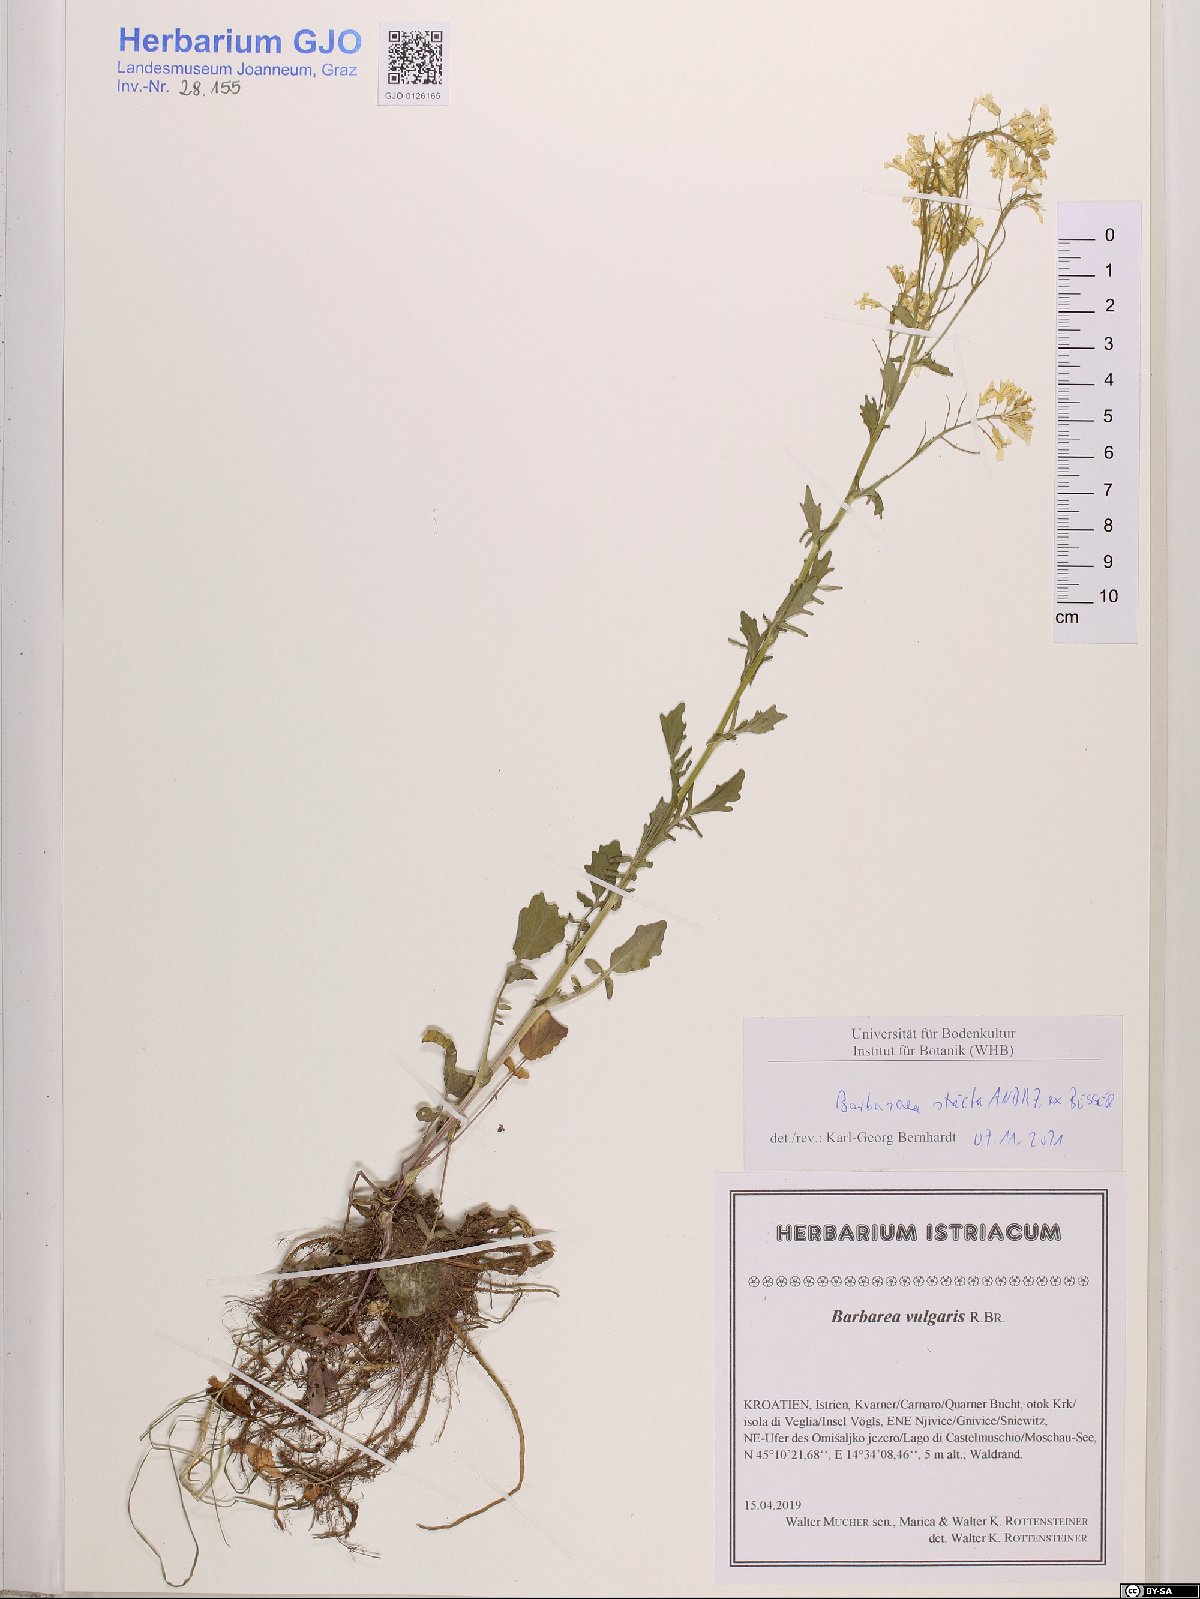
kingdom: Plantae
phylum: Tracheophyta
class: Magnoliopsida
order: Brassicales
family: Brassicaceae
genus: Barbarea
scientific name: Barbarea stricta
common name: Small-flowered winter-cress
